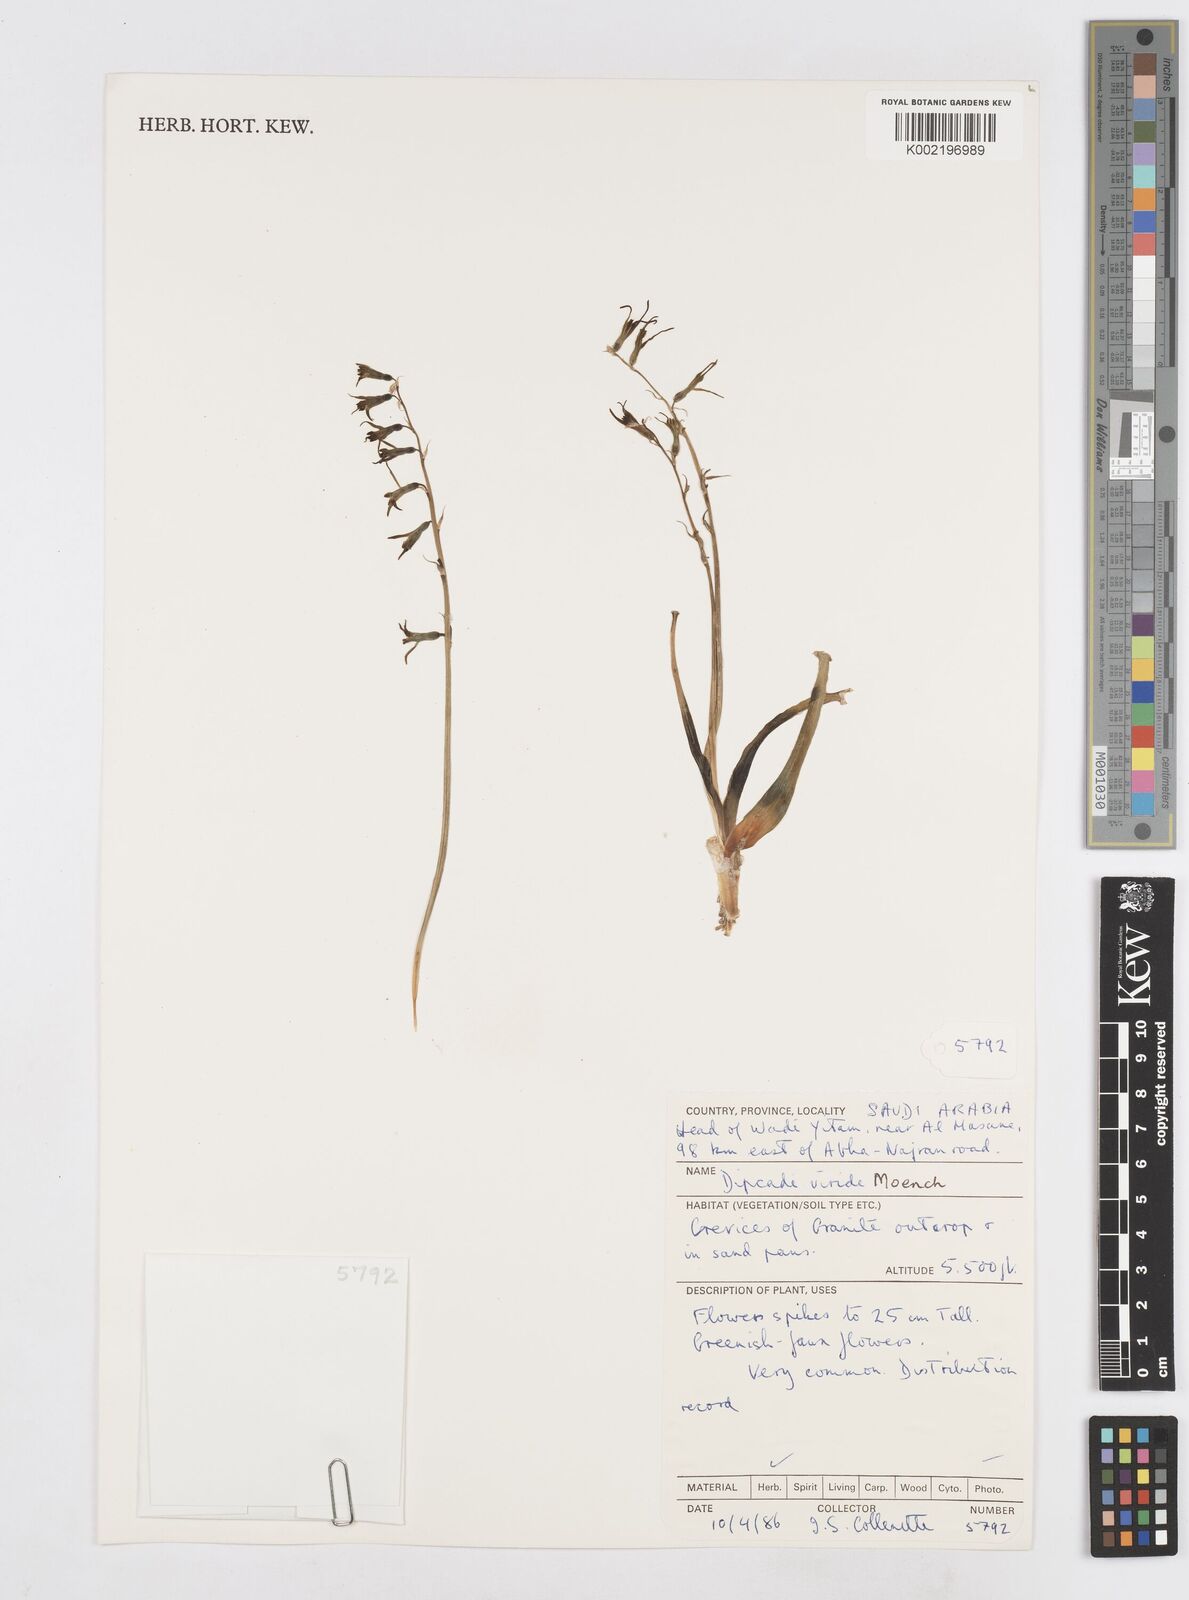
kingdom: Plantae
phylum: Tracheophyta
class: Liliopsida
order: Asparagales
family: Asparagaceae
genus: Dipcadi
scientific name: Dipcadi viride
